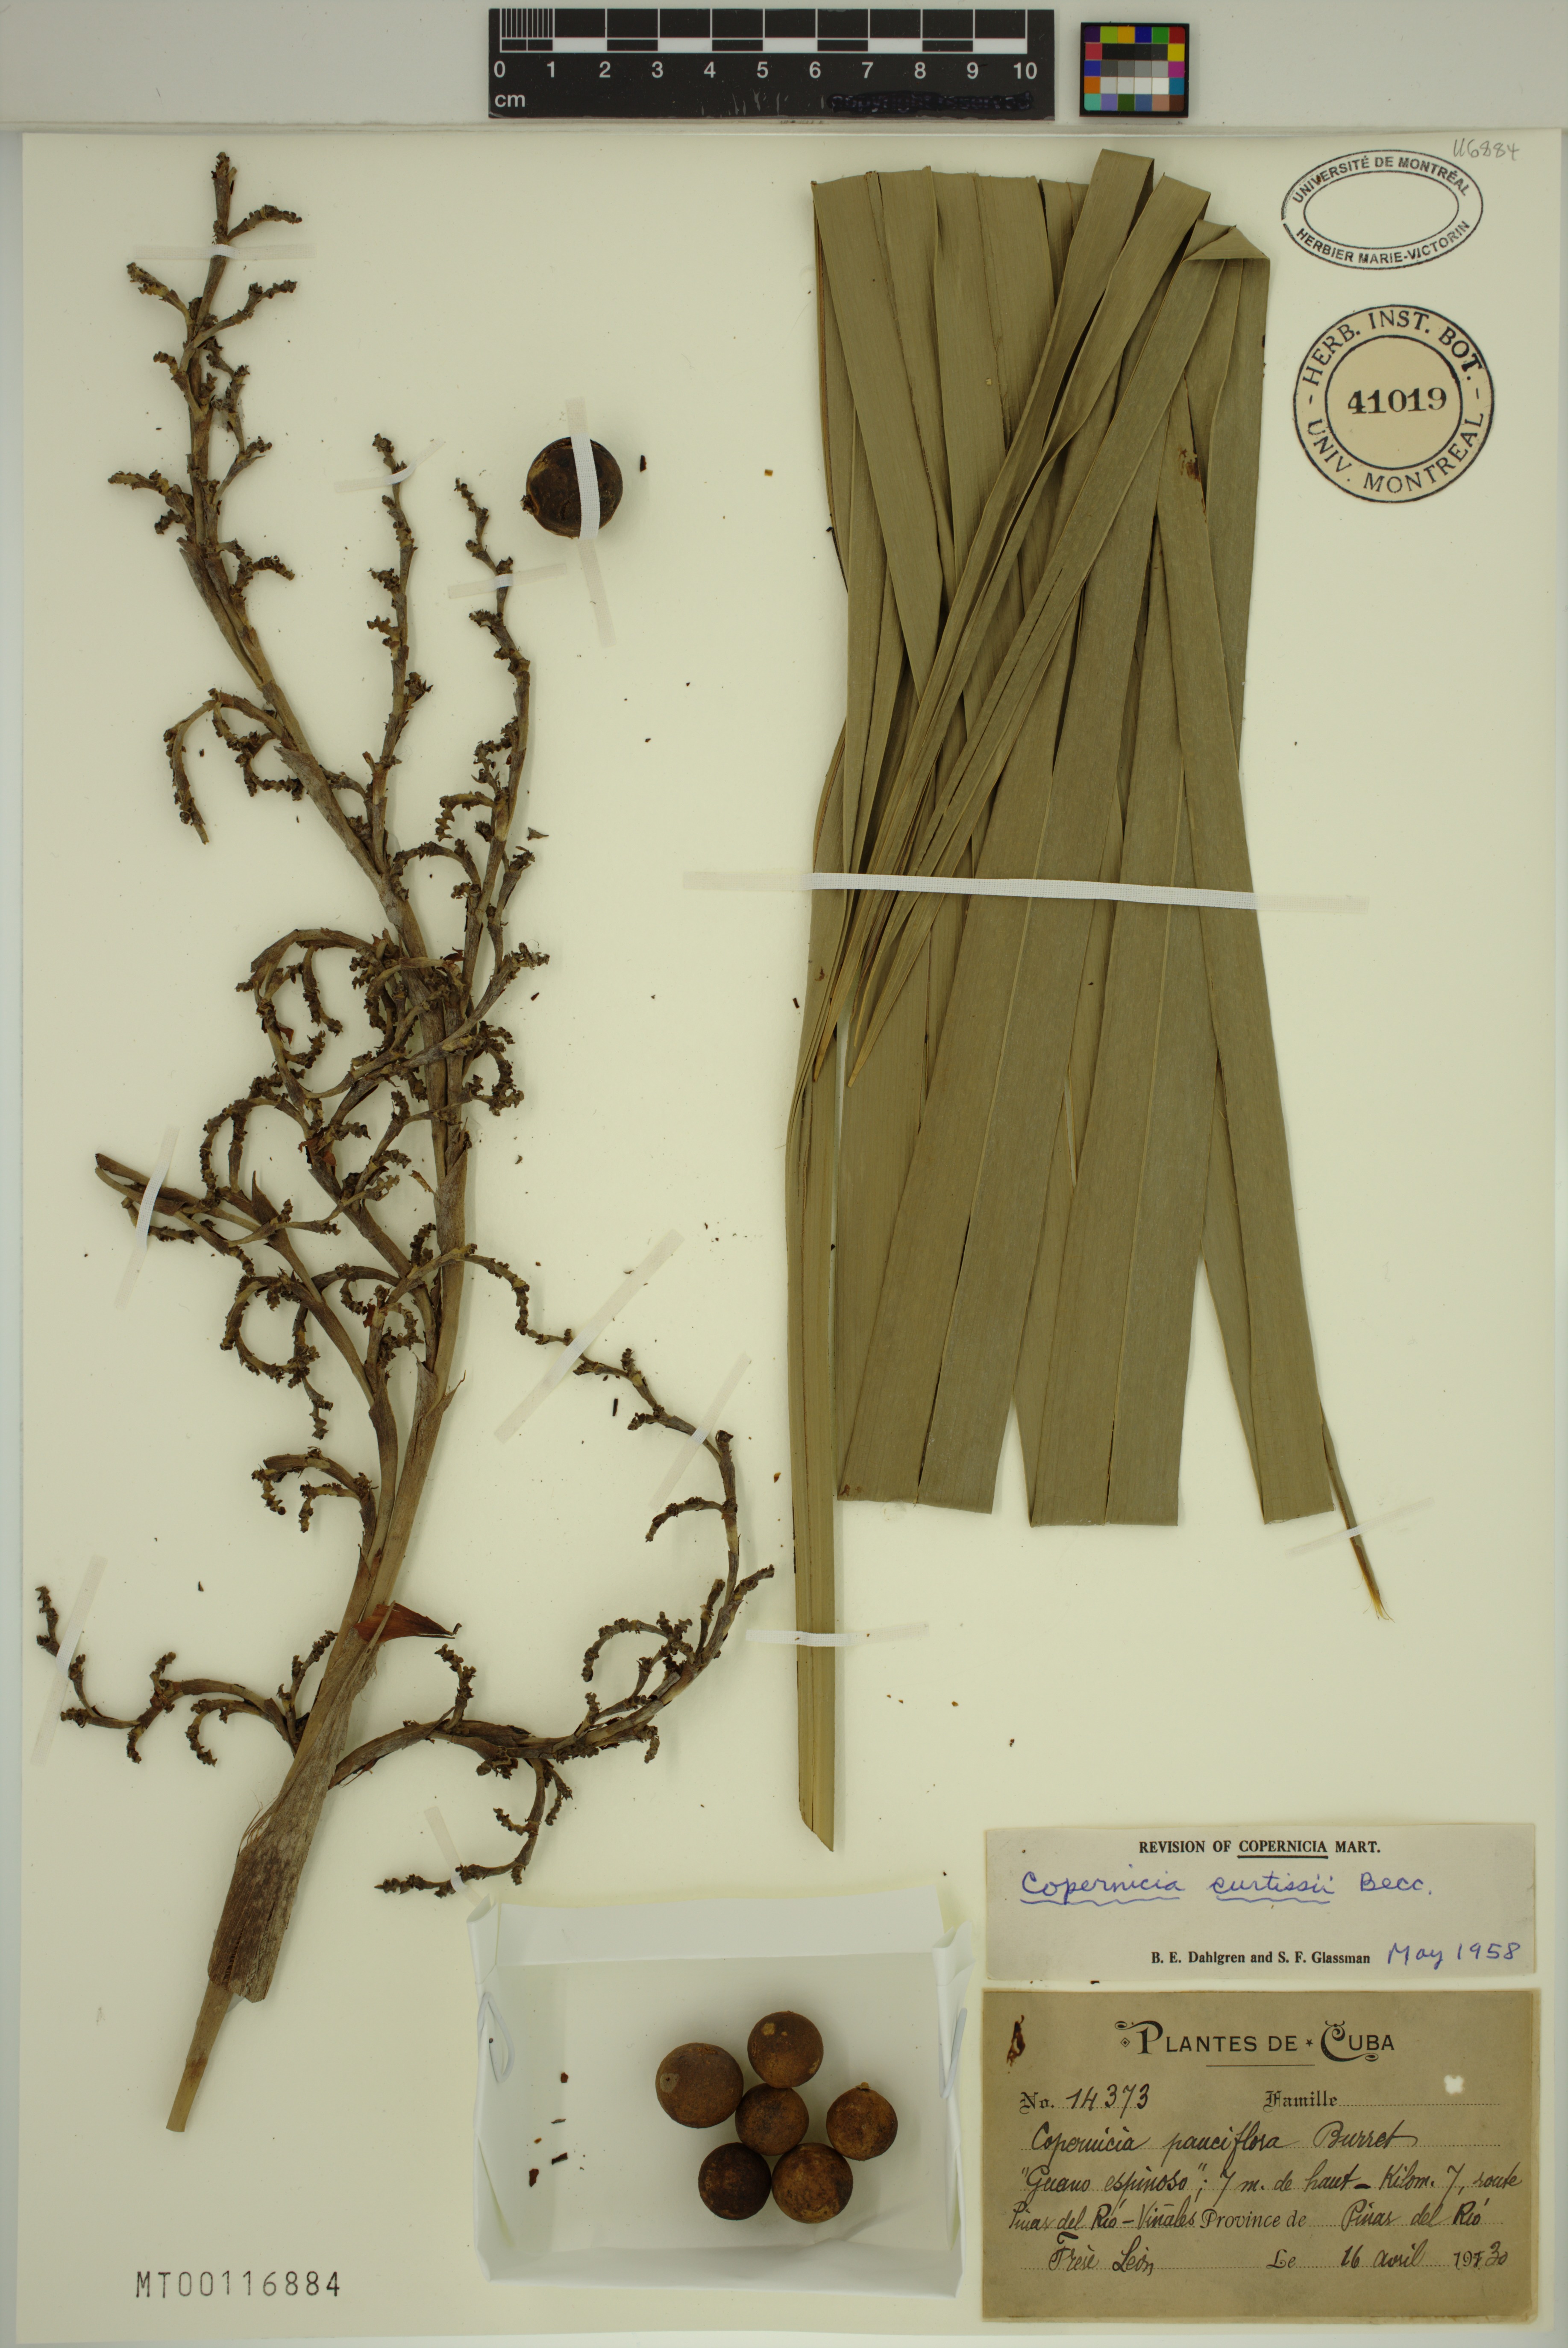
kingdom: Plantae
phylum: Tracheophyta
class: Liliopsida
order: Arecales
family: Arecaceae
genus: Copernicia
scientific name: Copernicia curtissii
